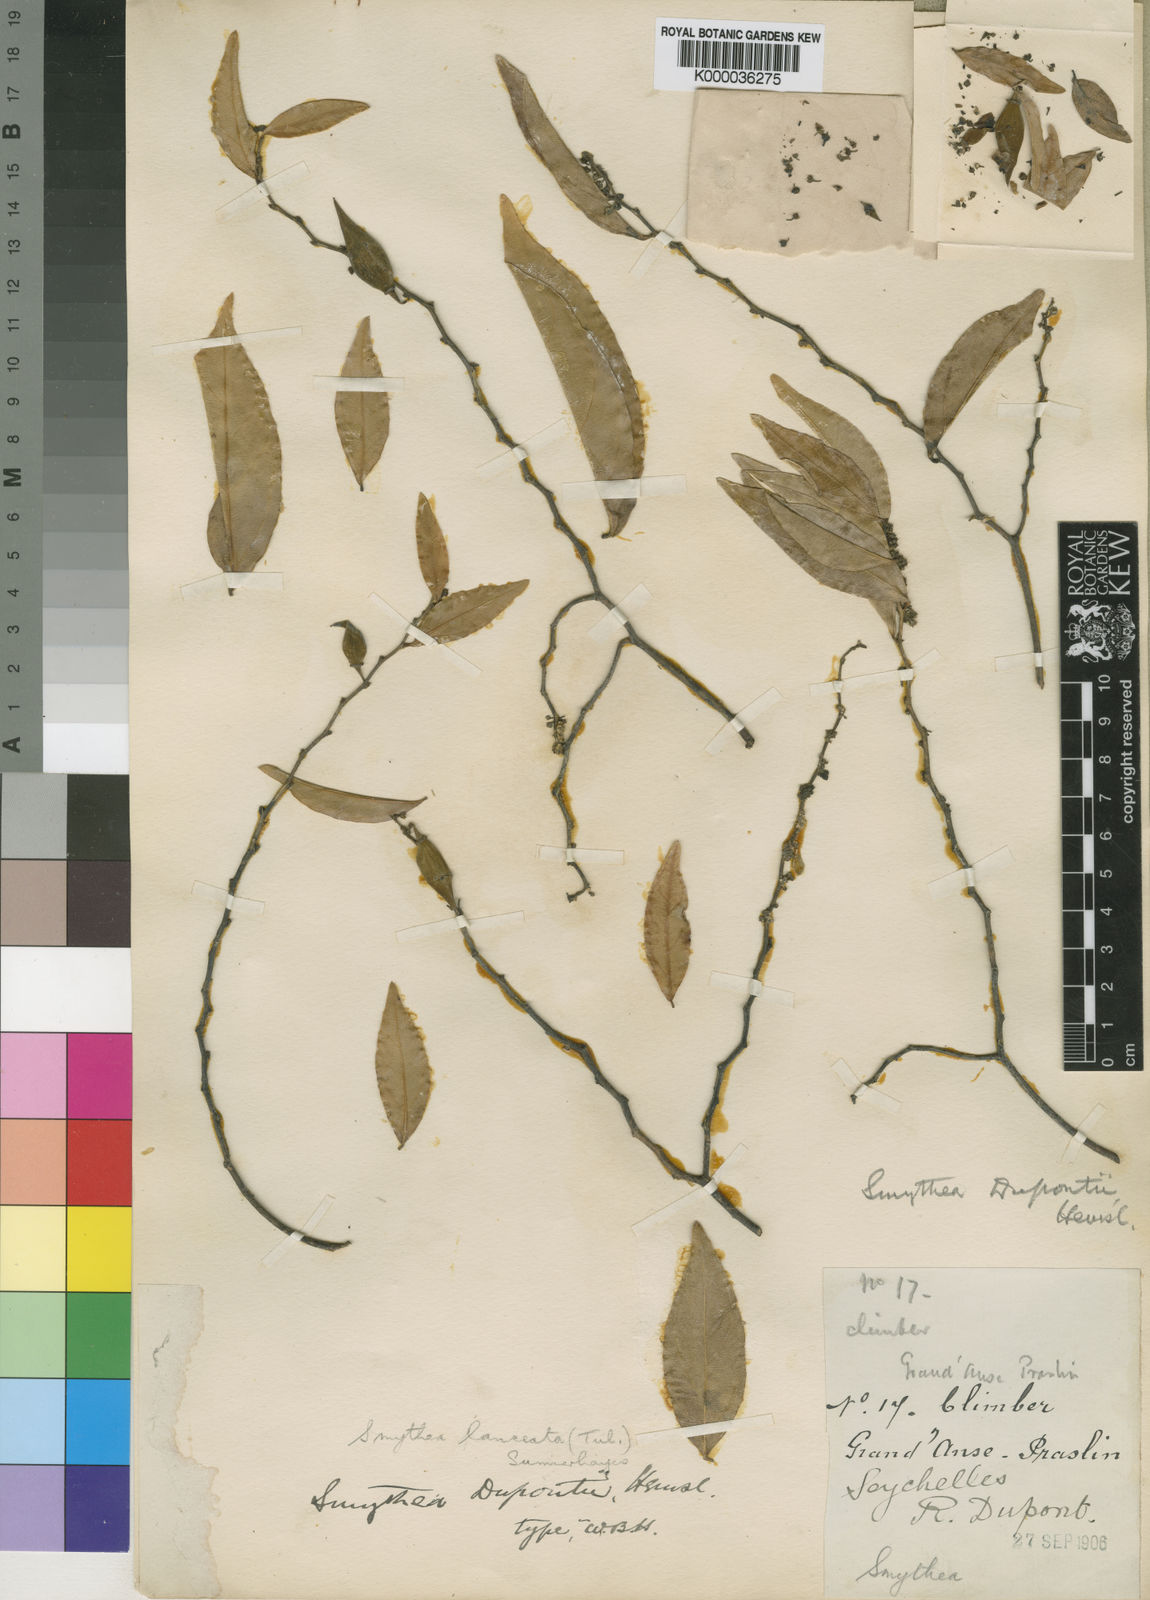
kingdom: Plantae
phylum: Tracheophyta
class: Magnoliopsida
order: Rosales
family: Rhamnaceae
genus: Smythea
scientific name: Smythea lanceata
